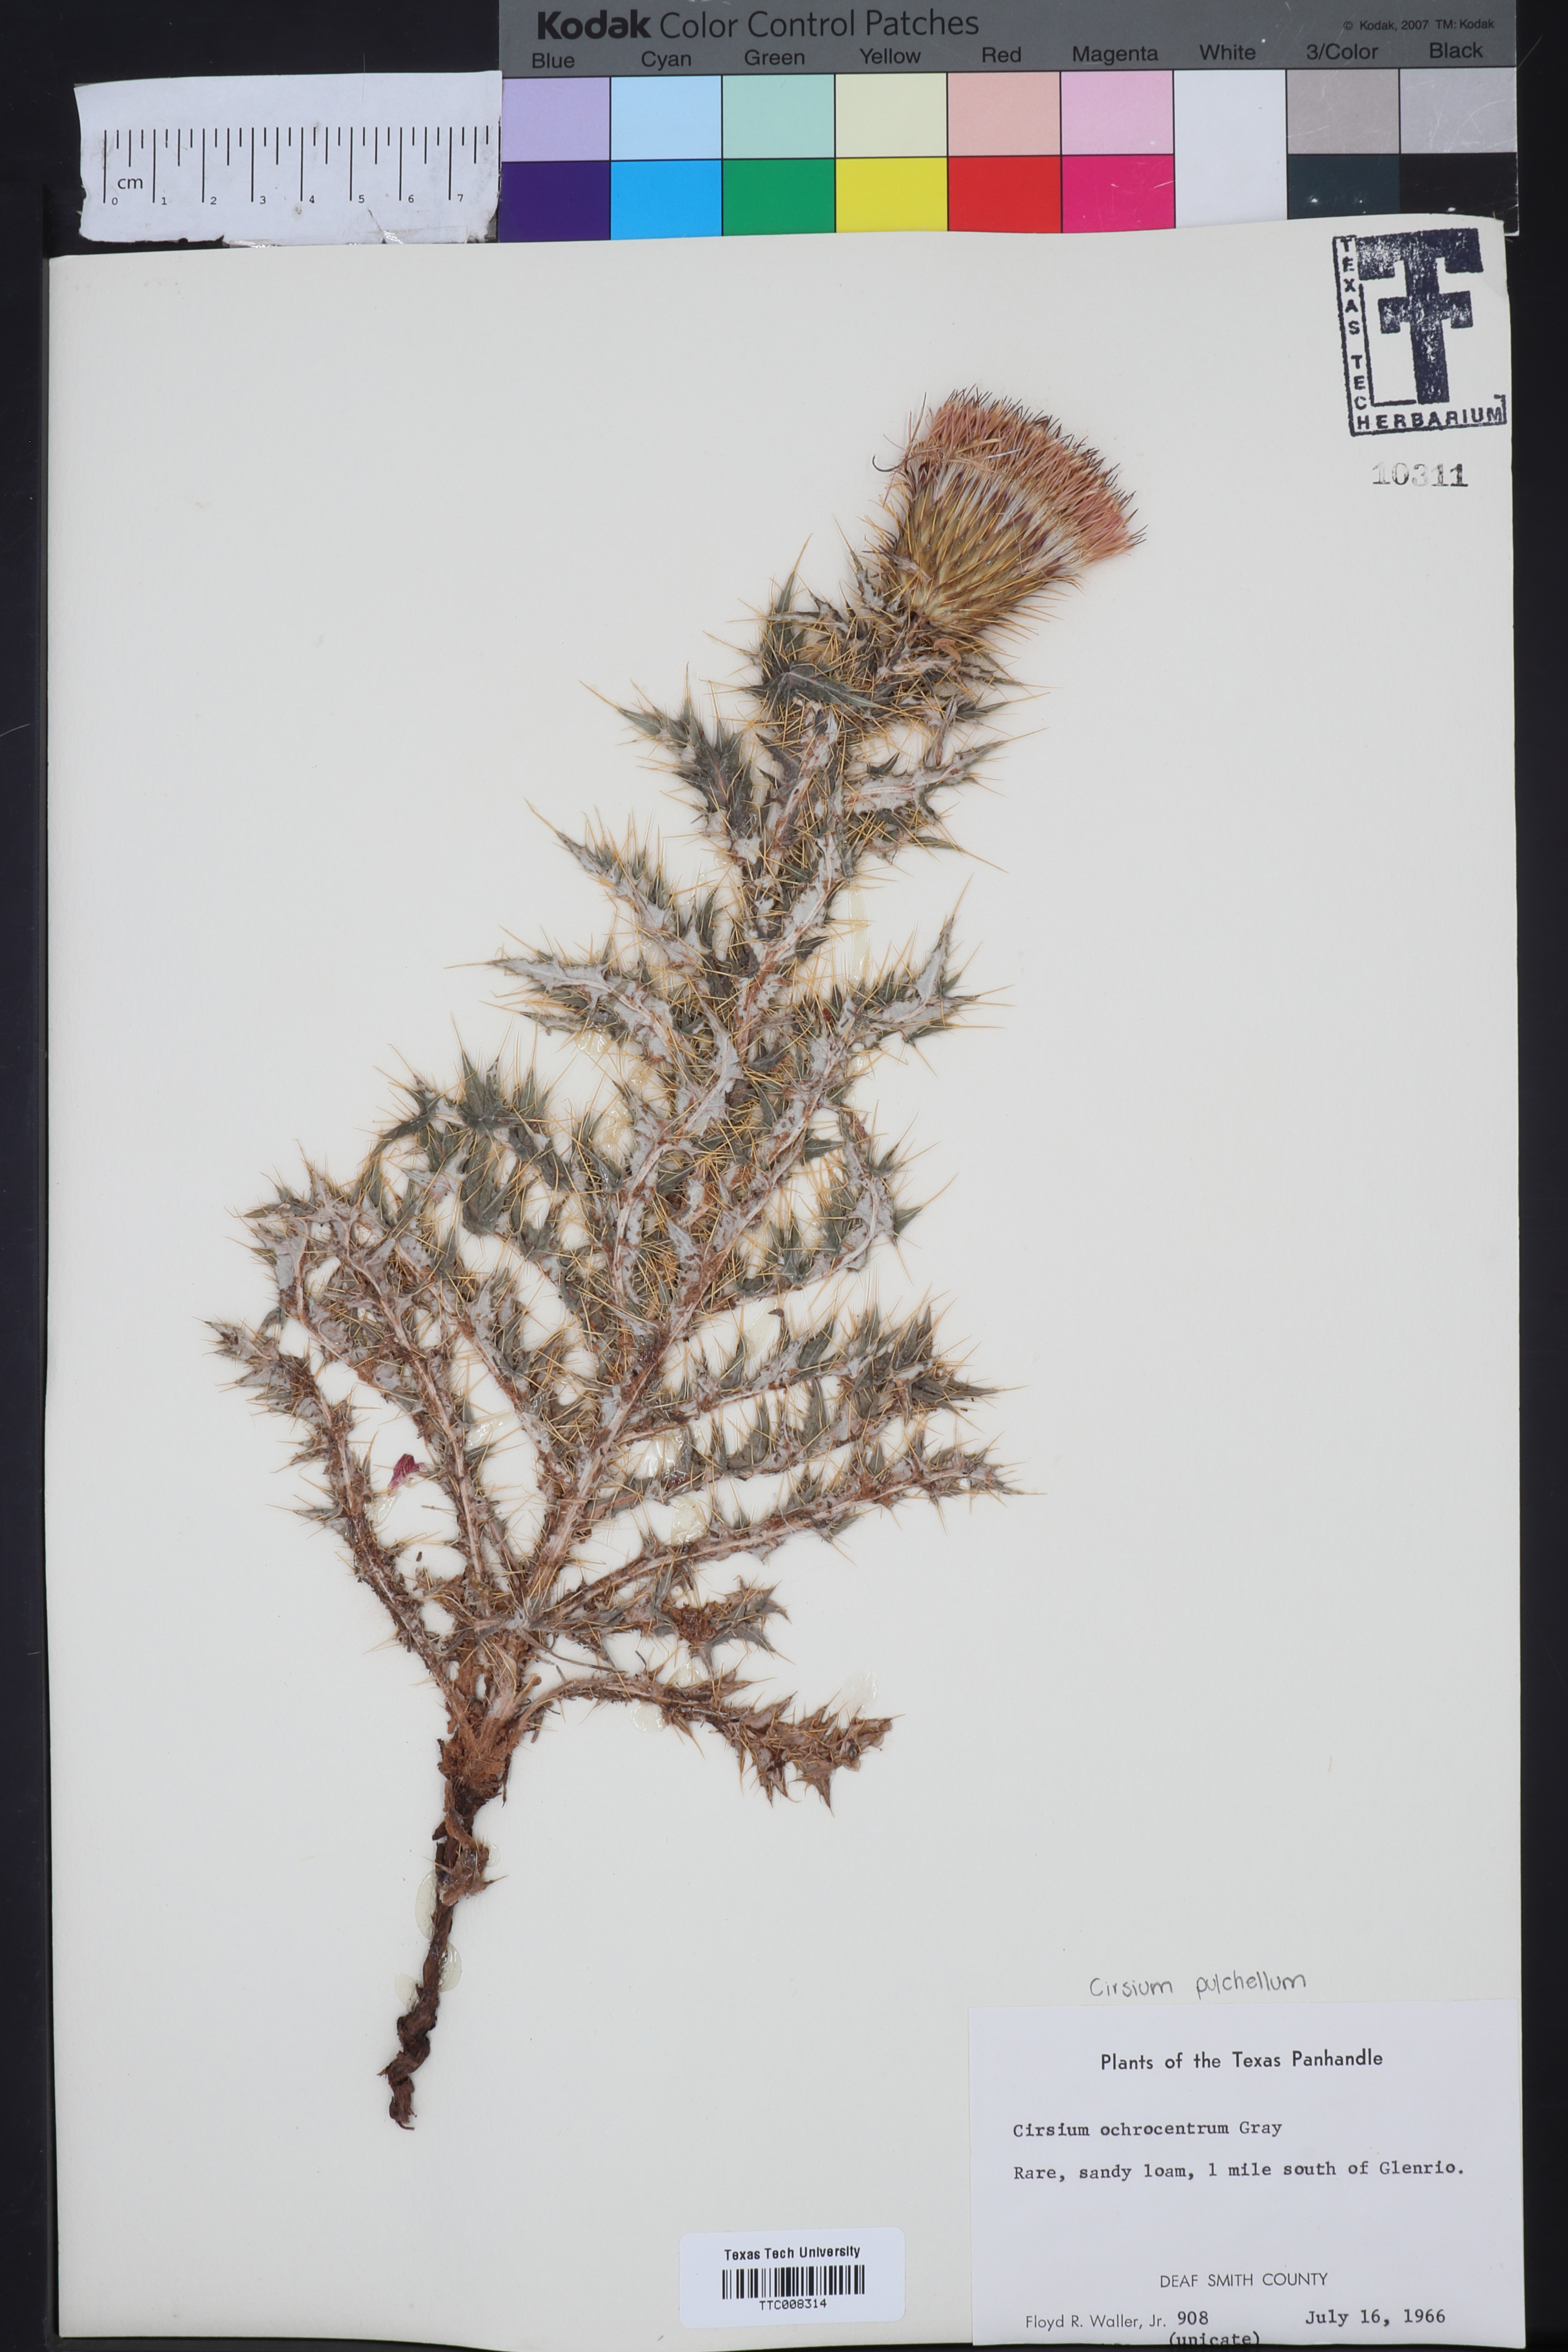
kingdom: Plantae
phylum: Tracheophyta
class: Magnoliopsida
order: Asterales
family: Asteraceae
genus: Cirsium
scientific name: Cirsium ochrocentrum
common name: Yellow-spine thistle
